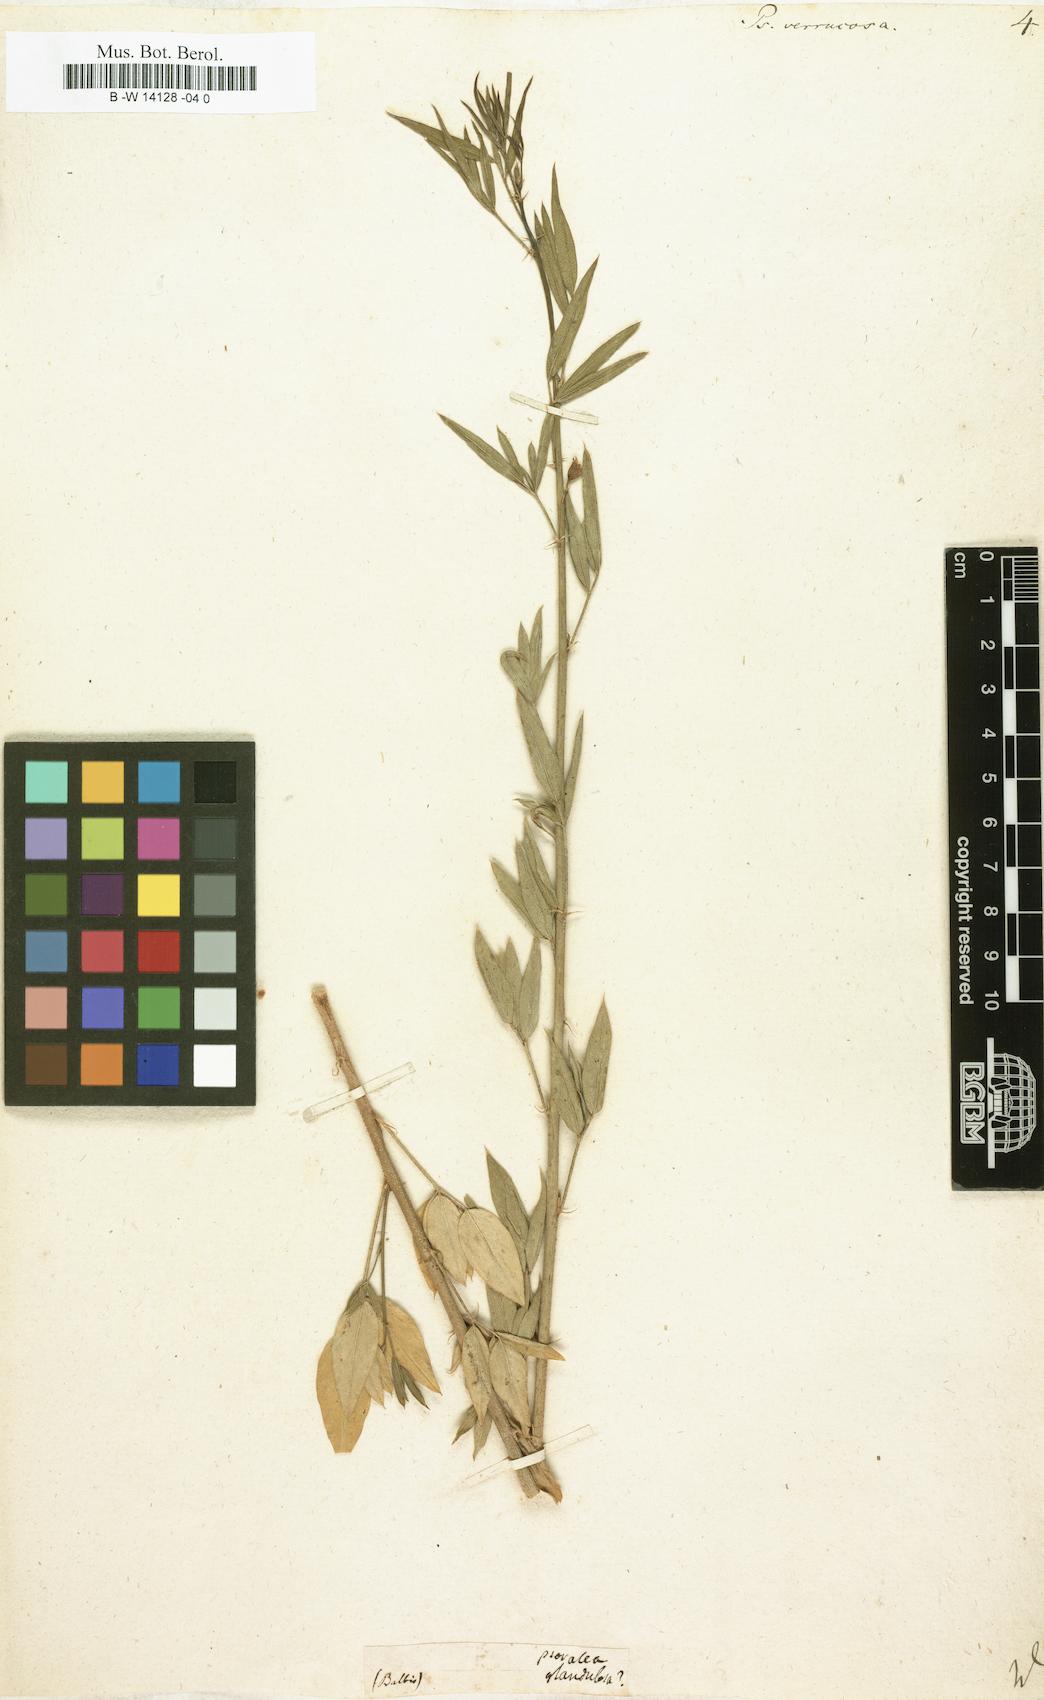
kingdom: Plantae
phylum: Tracheophyta
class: Magnoliopsida
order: Fabales
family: Fabaceae
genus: Psoralea
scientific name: Psoralea verrucosa
